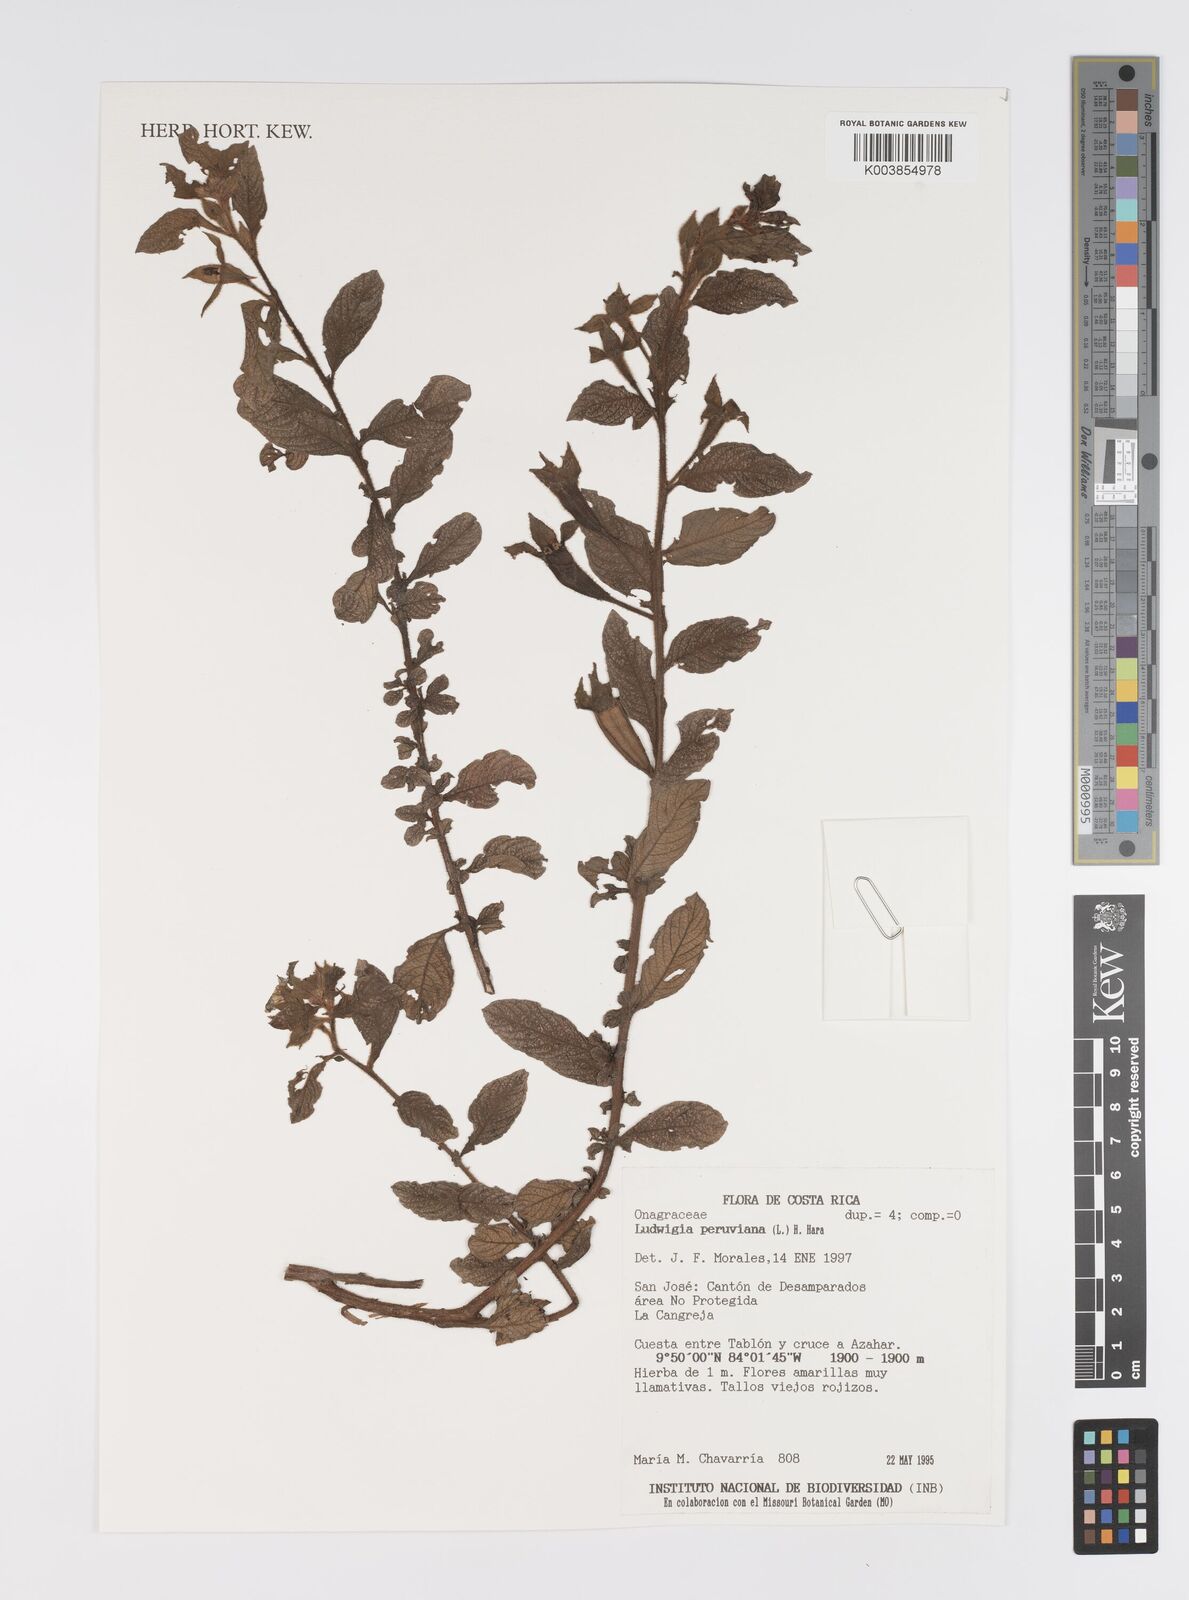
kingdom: Plantae
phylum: Tracheophyta
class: Magnoliopsida
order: Myrtales
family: Onagraceae
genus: Ludwigia
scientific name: Ludwigia peruviana
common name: Peruvian primrose-willow
